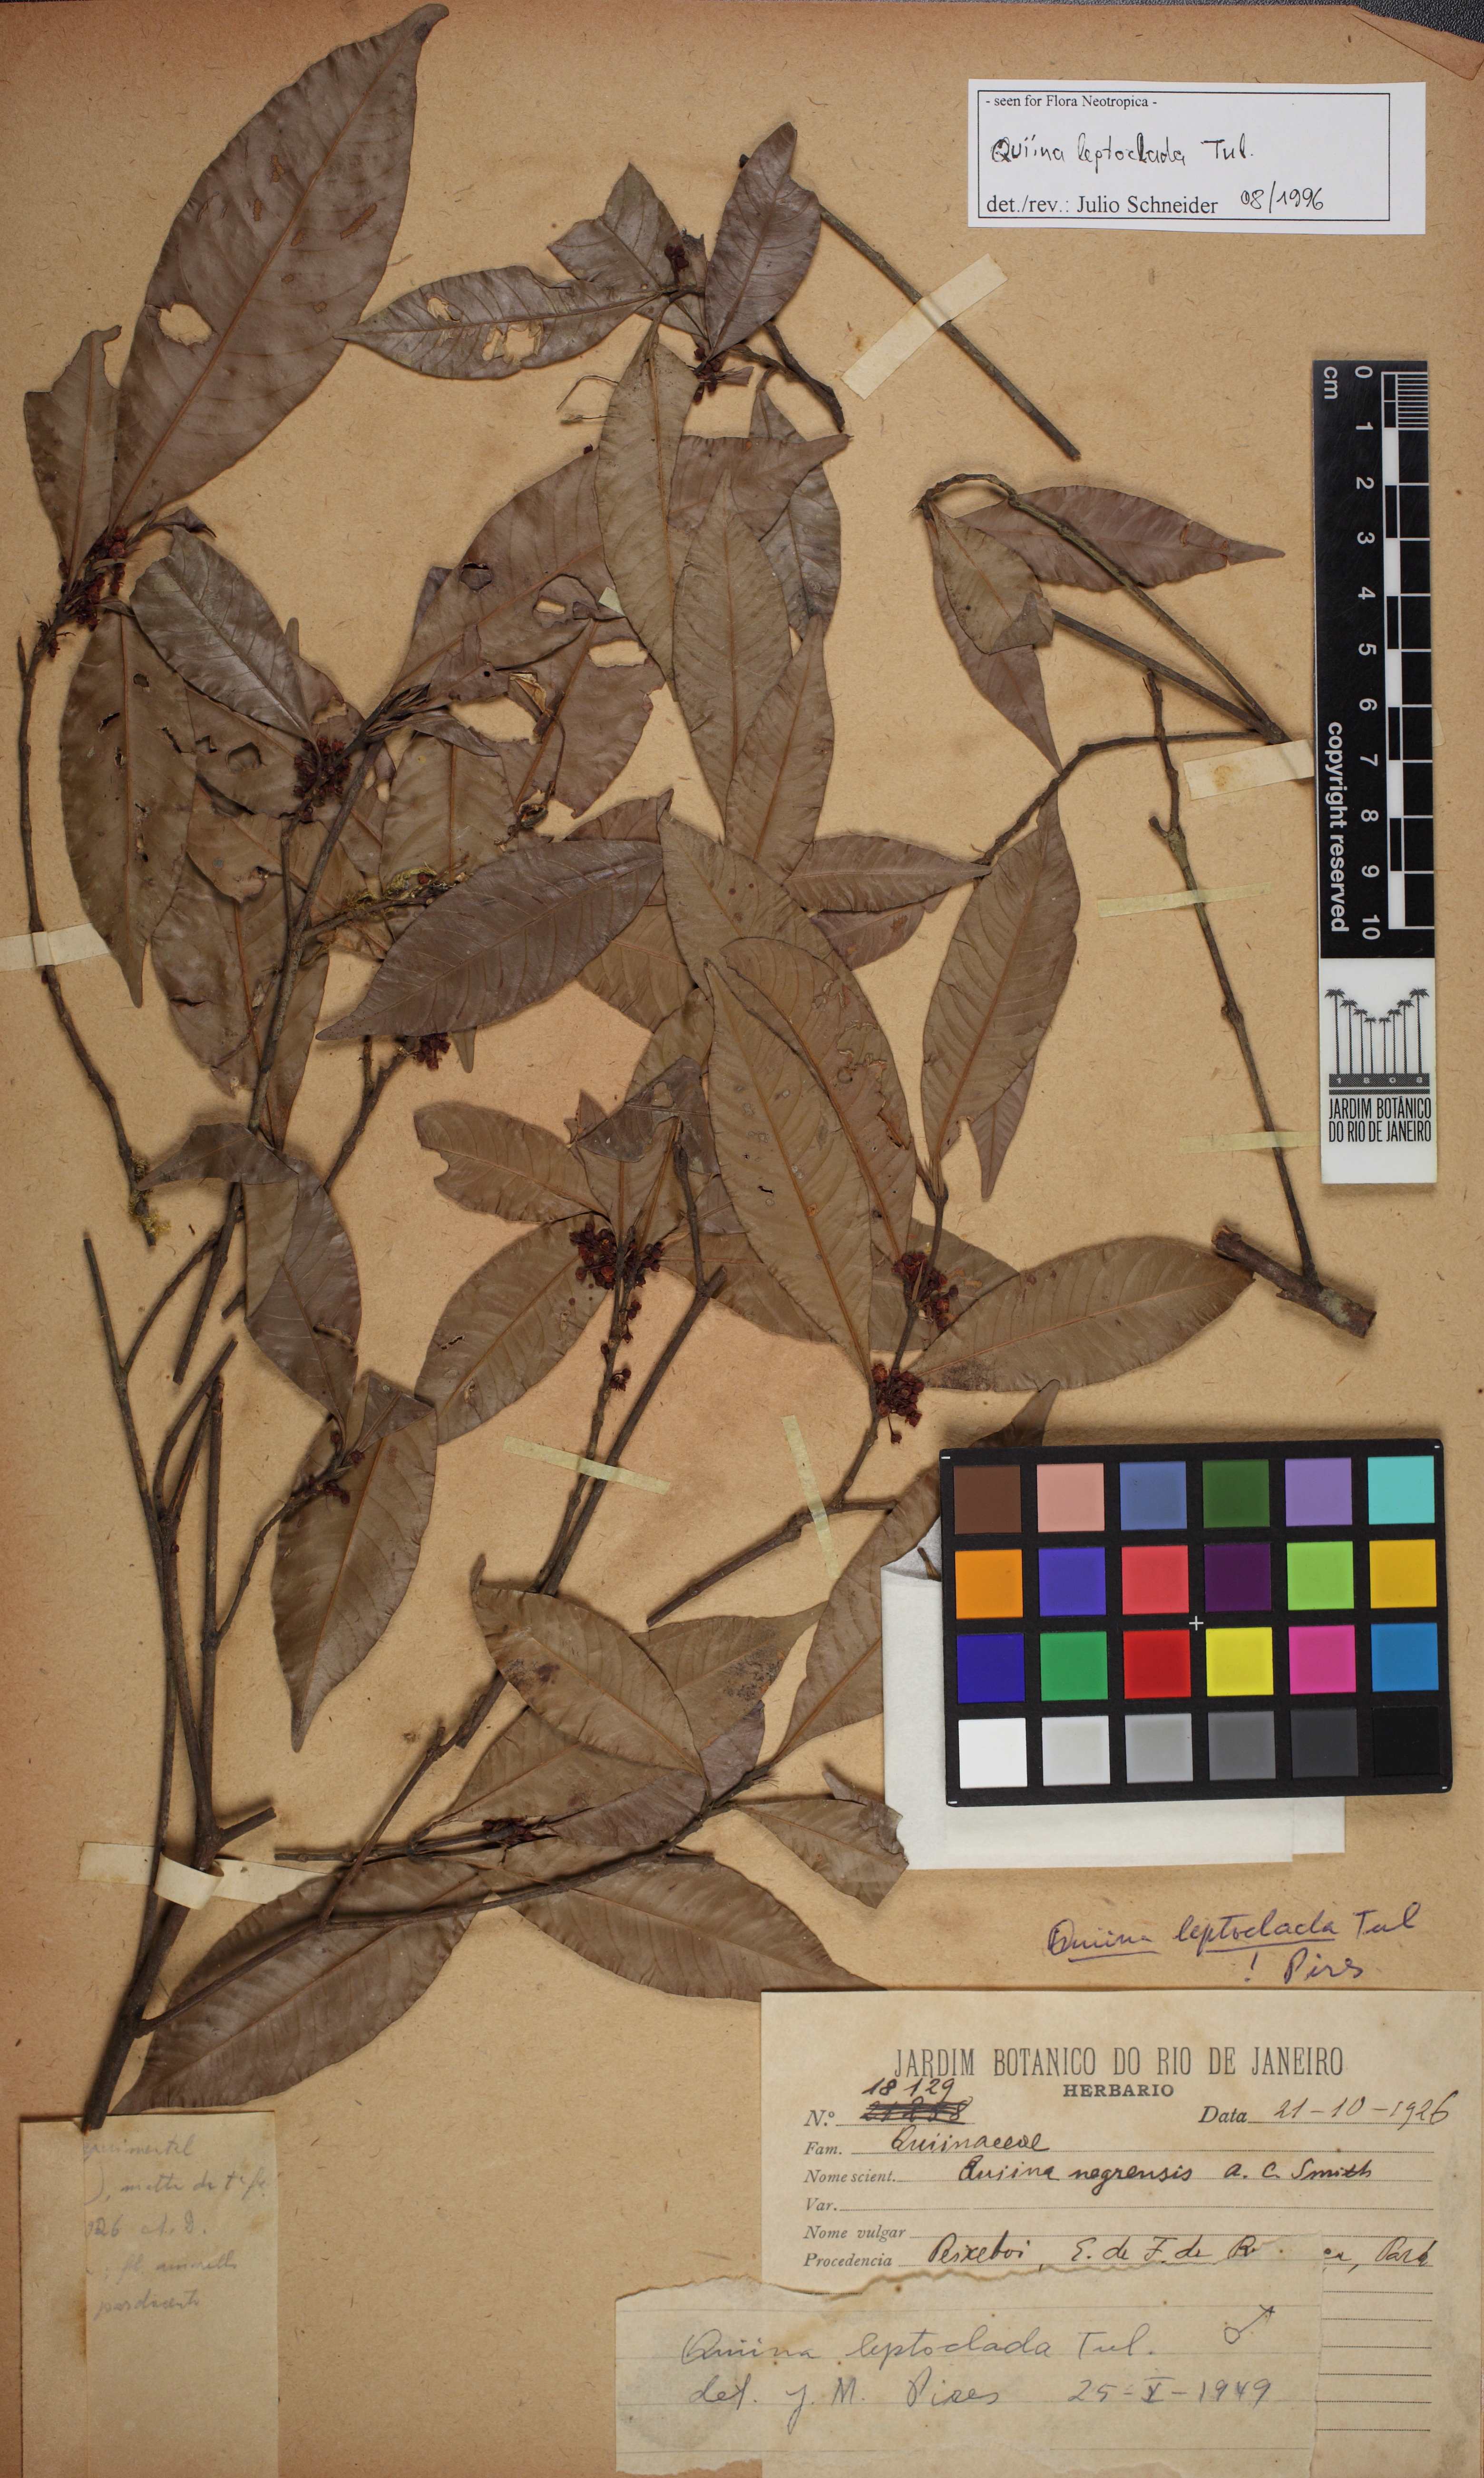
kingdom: Plantae
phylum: Tracheophyta
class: Magnoliopsida
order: Malpighiales
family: Quiinaceae
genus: Quiina
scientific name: Quiina leptoclada
